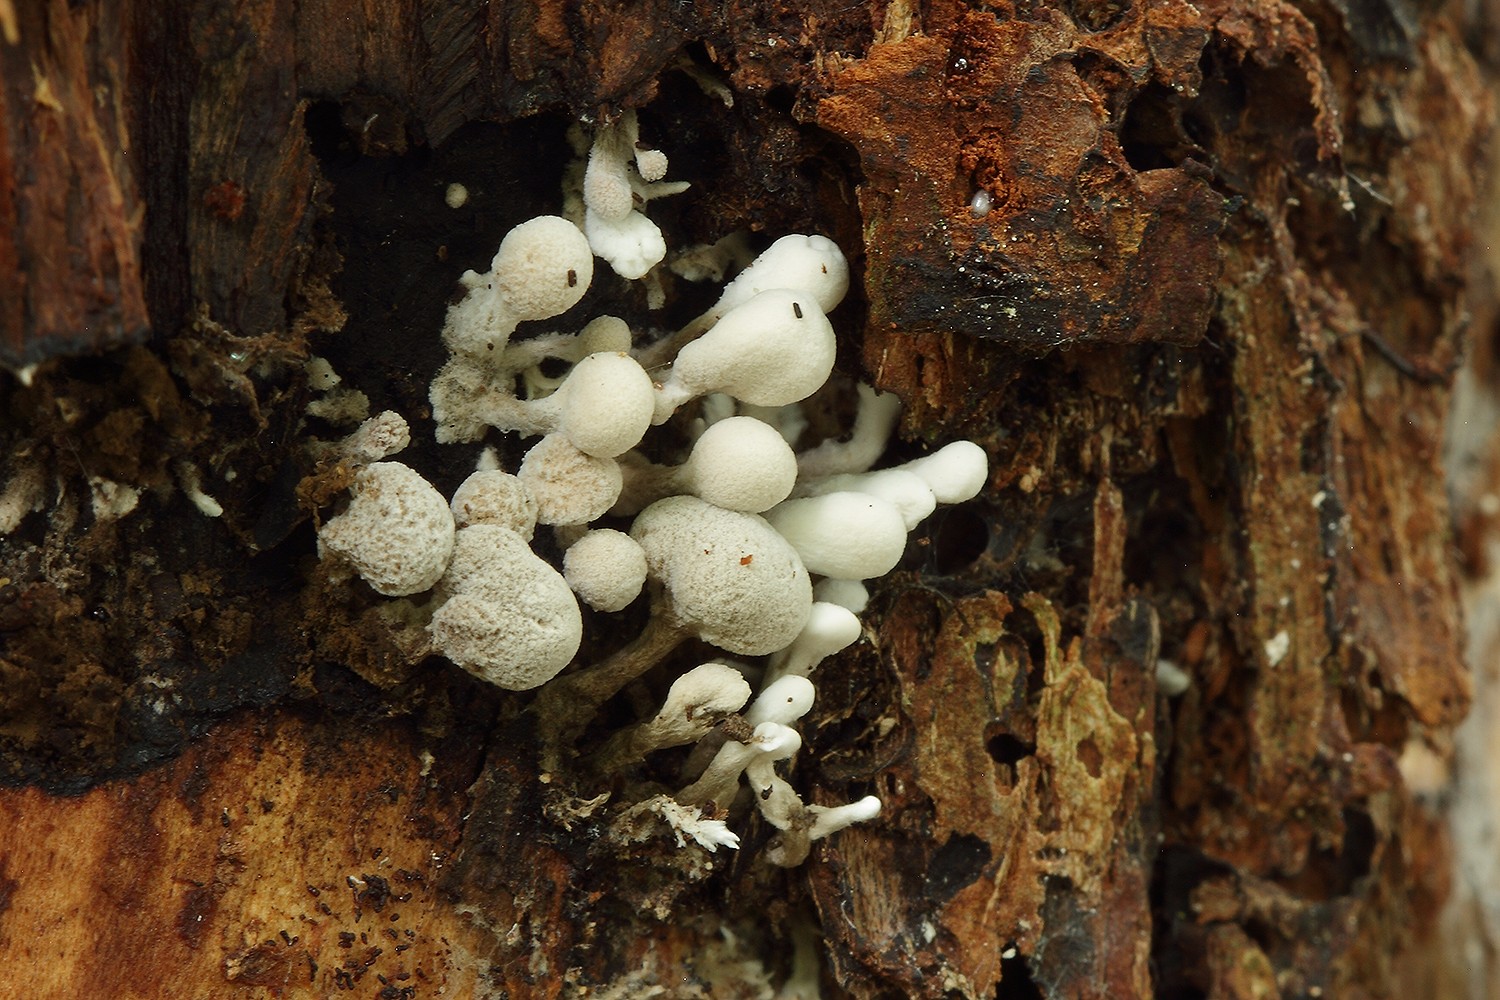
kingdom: Fungi
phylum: Basidiomycota
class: Atractiellomycetes
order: Atractiellales
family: Phleogenaceae
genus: Phleogena
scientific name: Phleogena faginea
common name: pudderkølle
